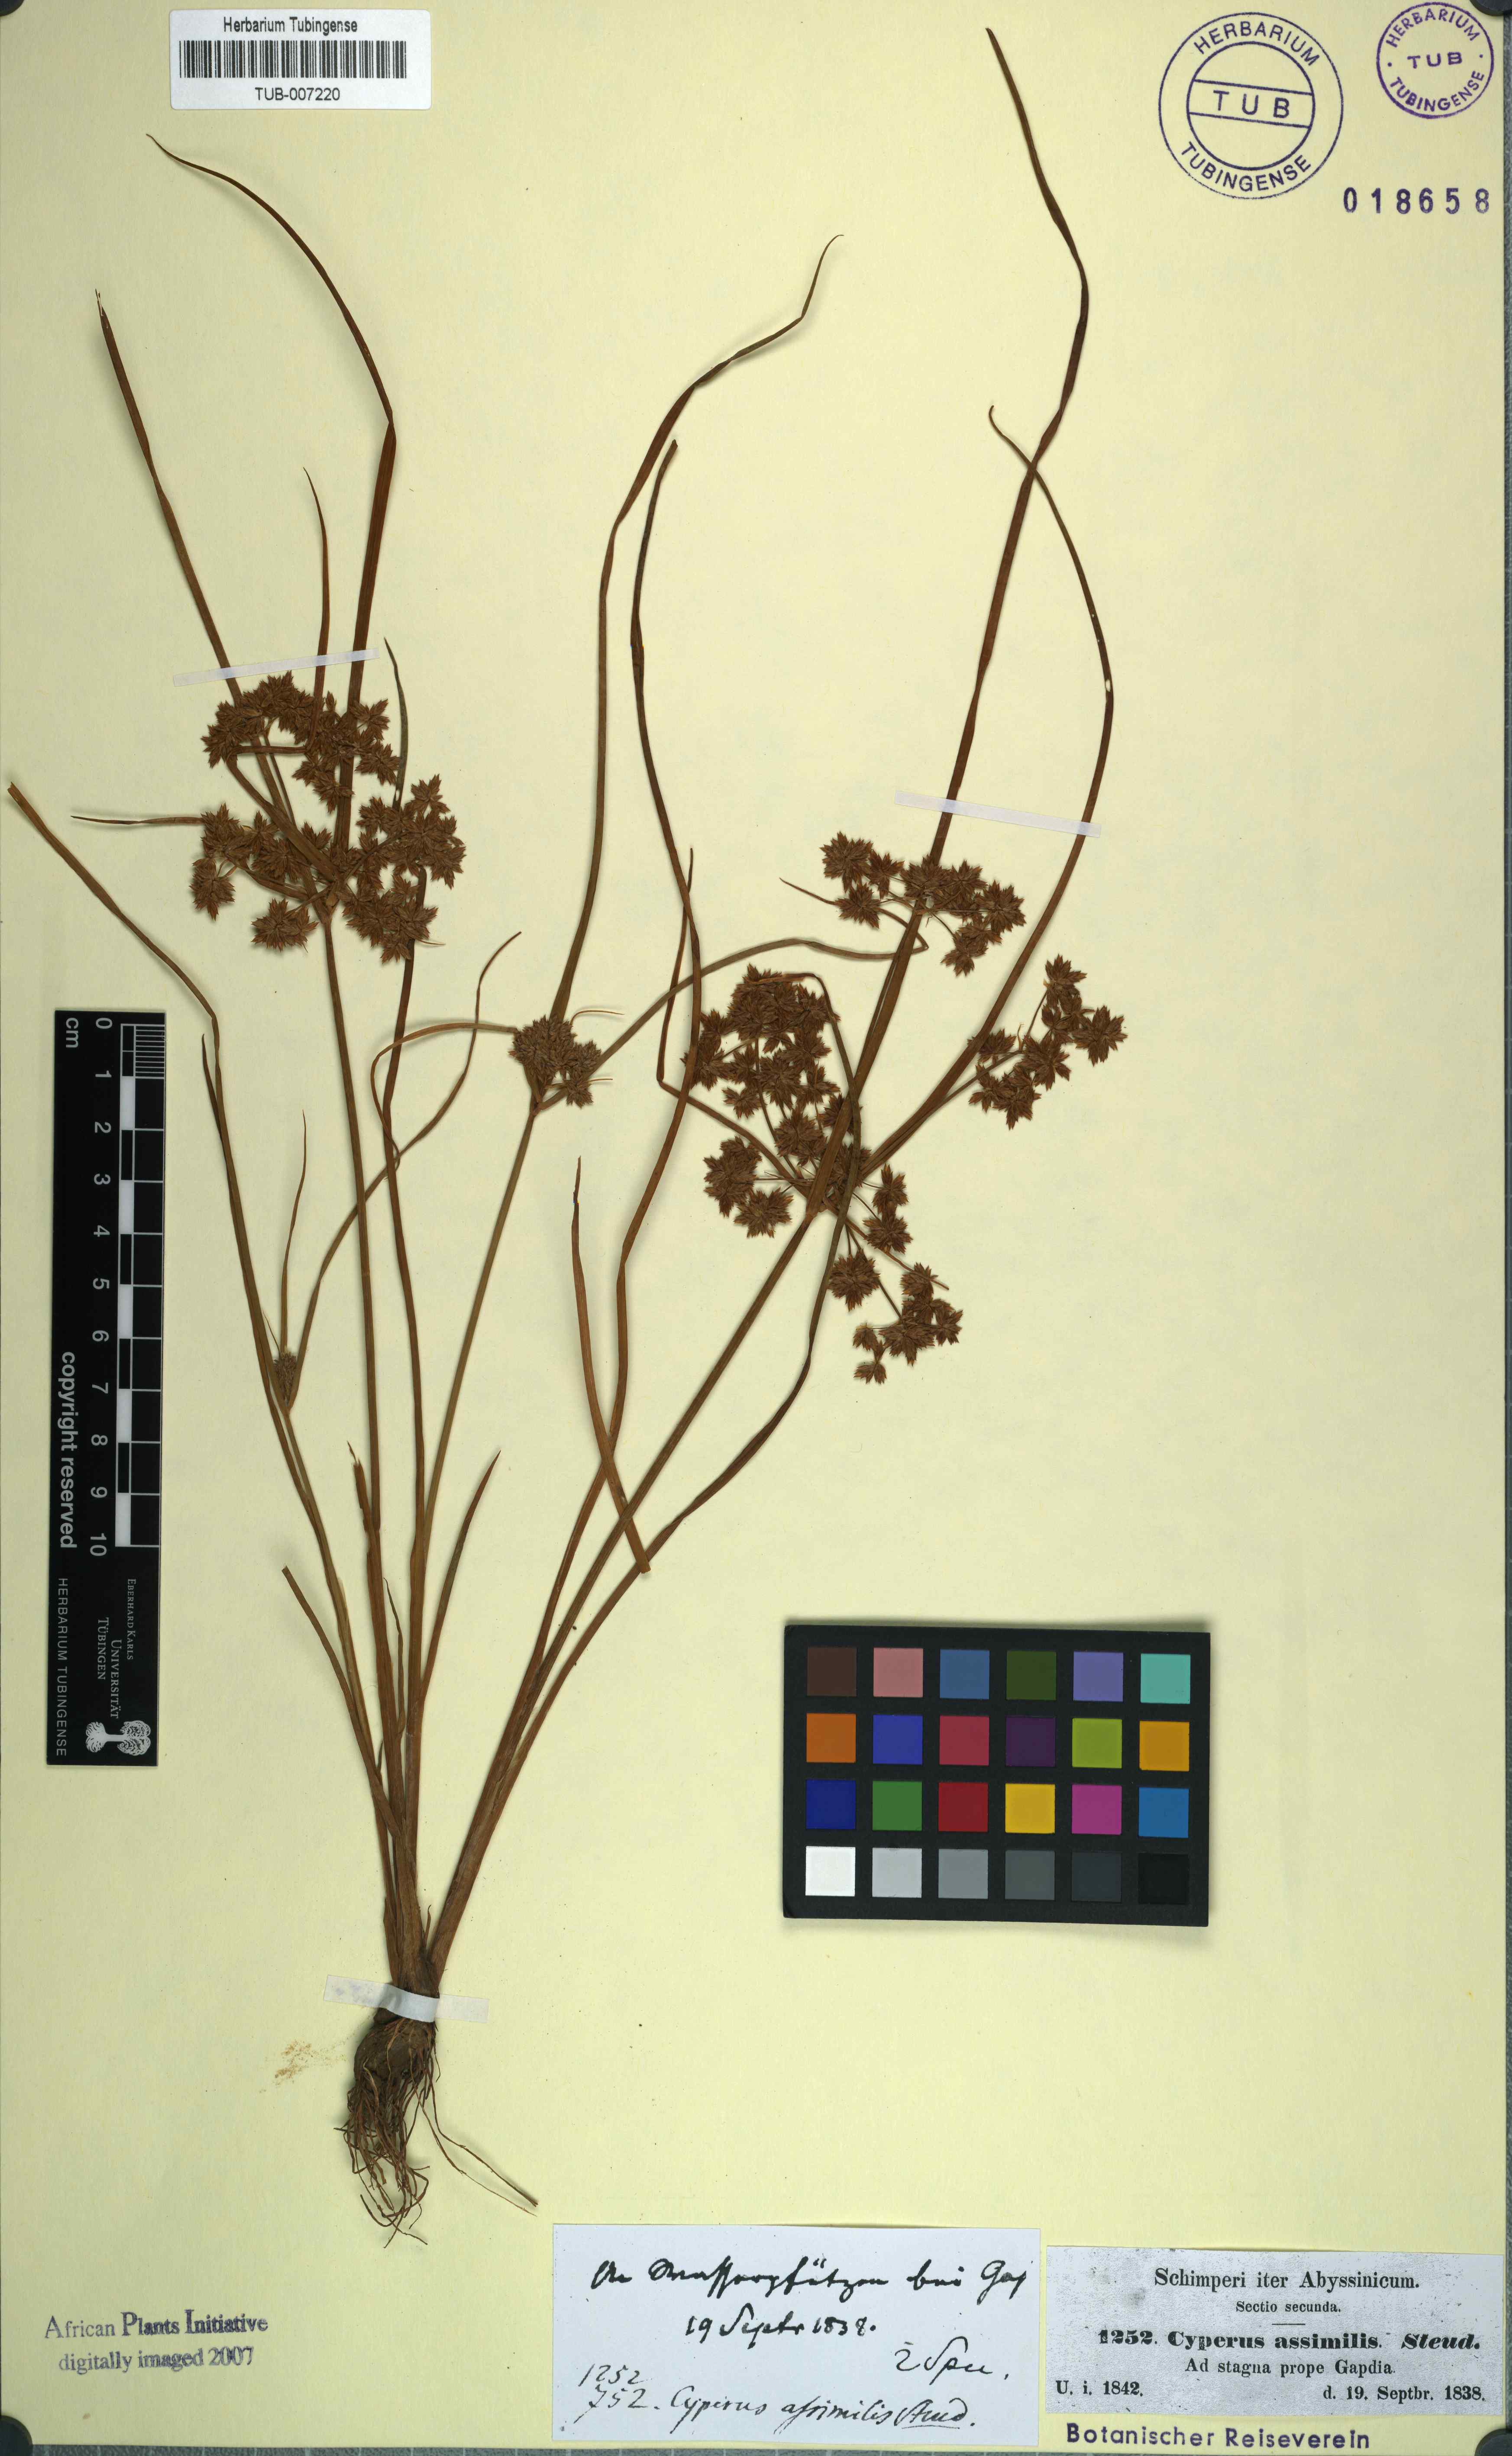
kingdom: Plantae
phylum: Tracheophyta
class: Liliopsida
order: Poales
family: Cyperaceae
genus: Cyperus
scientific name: Cyperus assimilis
